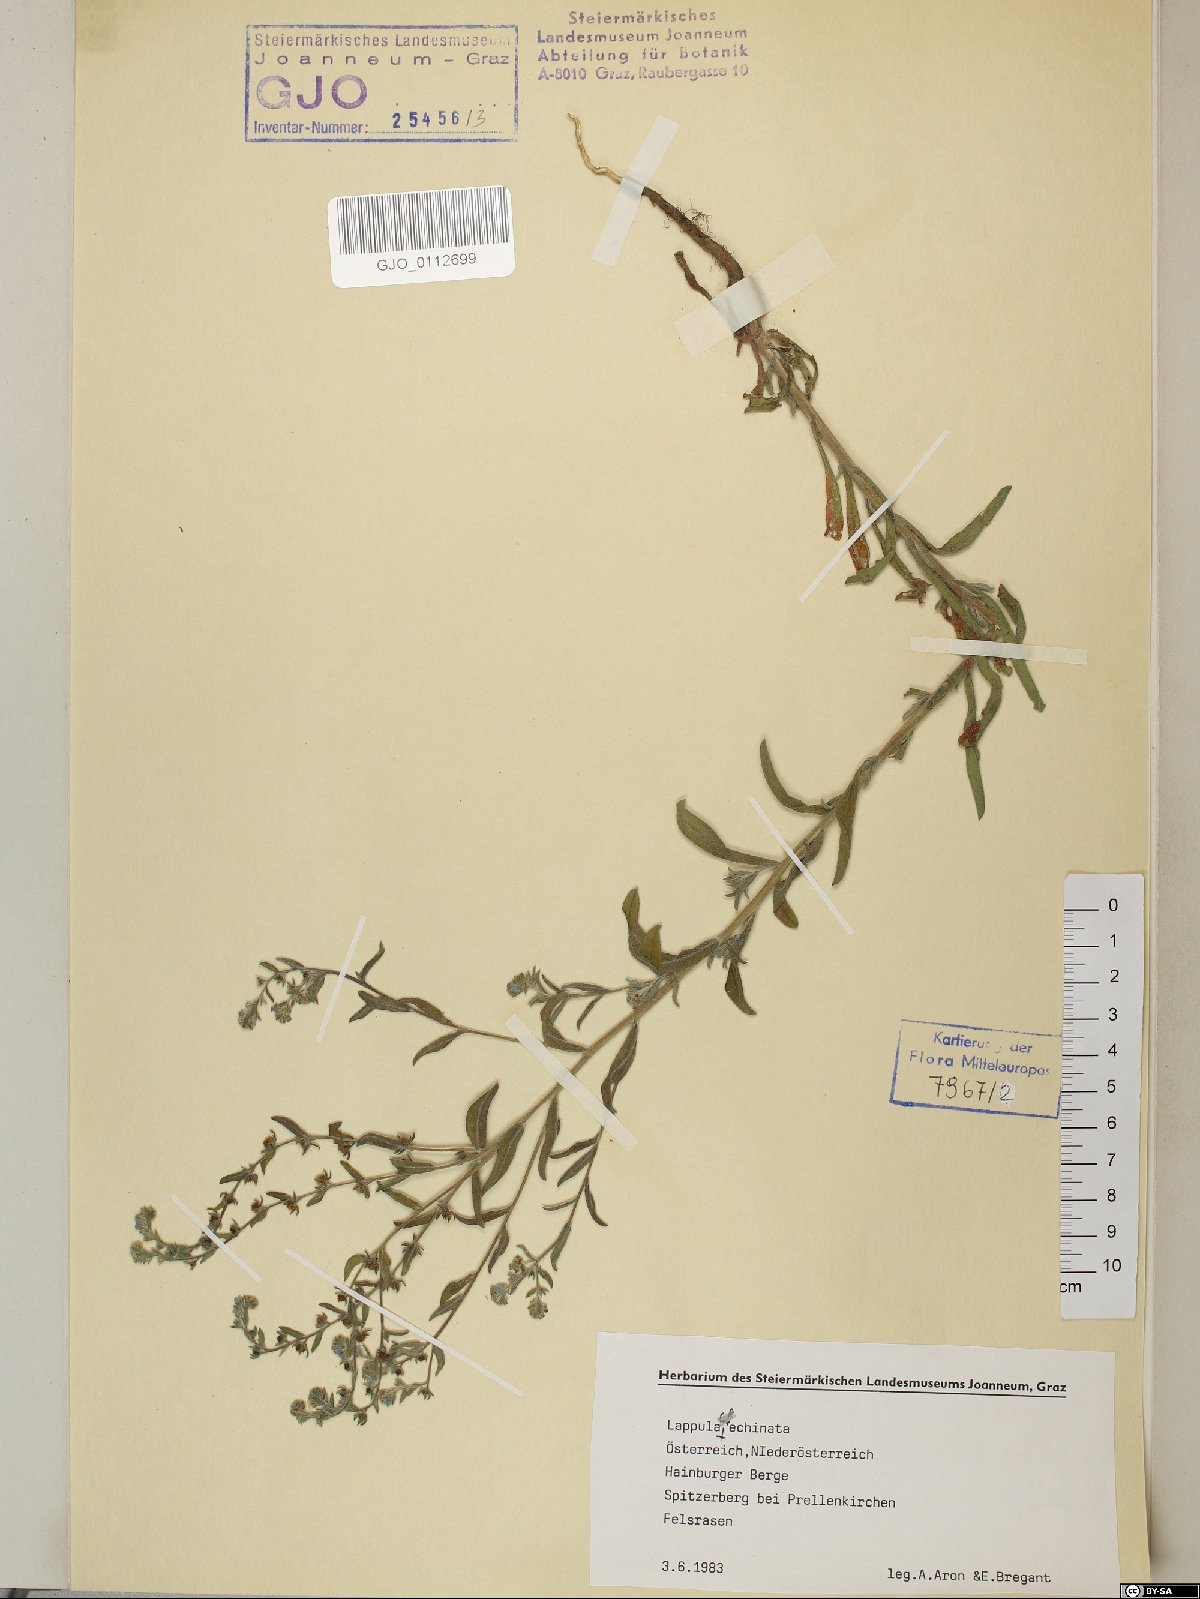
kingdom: Plantae
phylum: Tracheophyta
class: Magnoliopsida
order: Boraginales
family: Boraginaceae
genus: Lappula
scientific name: Lappula squarrosa
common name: European stickseed
